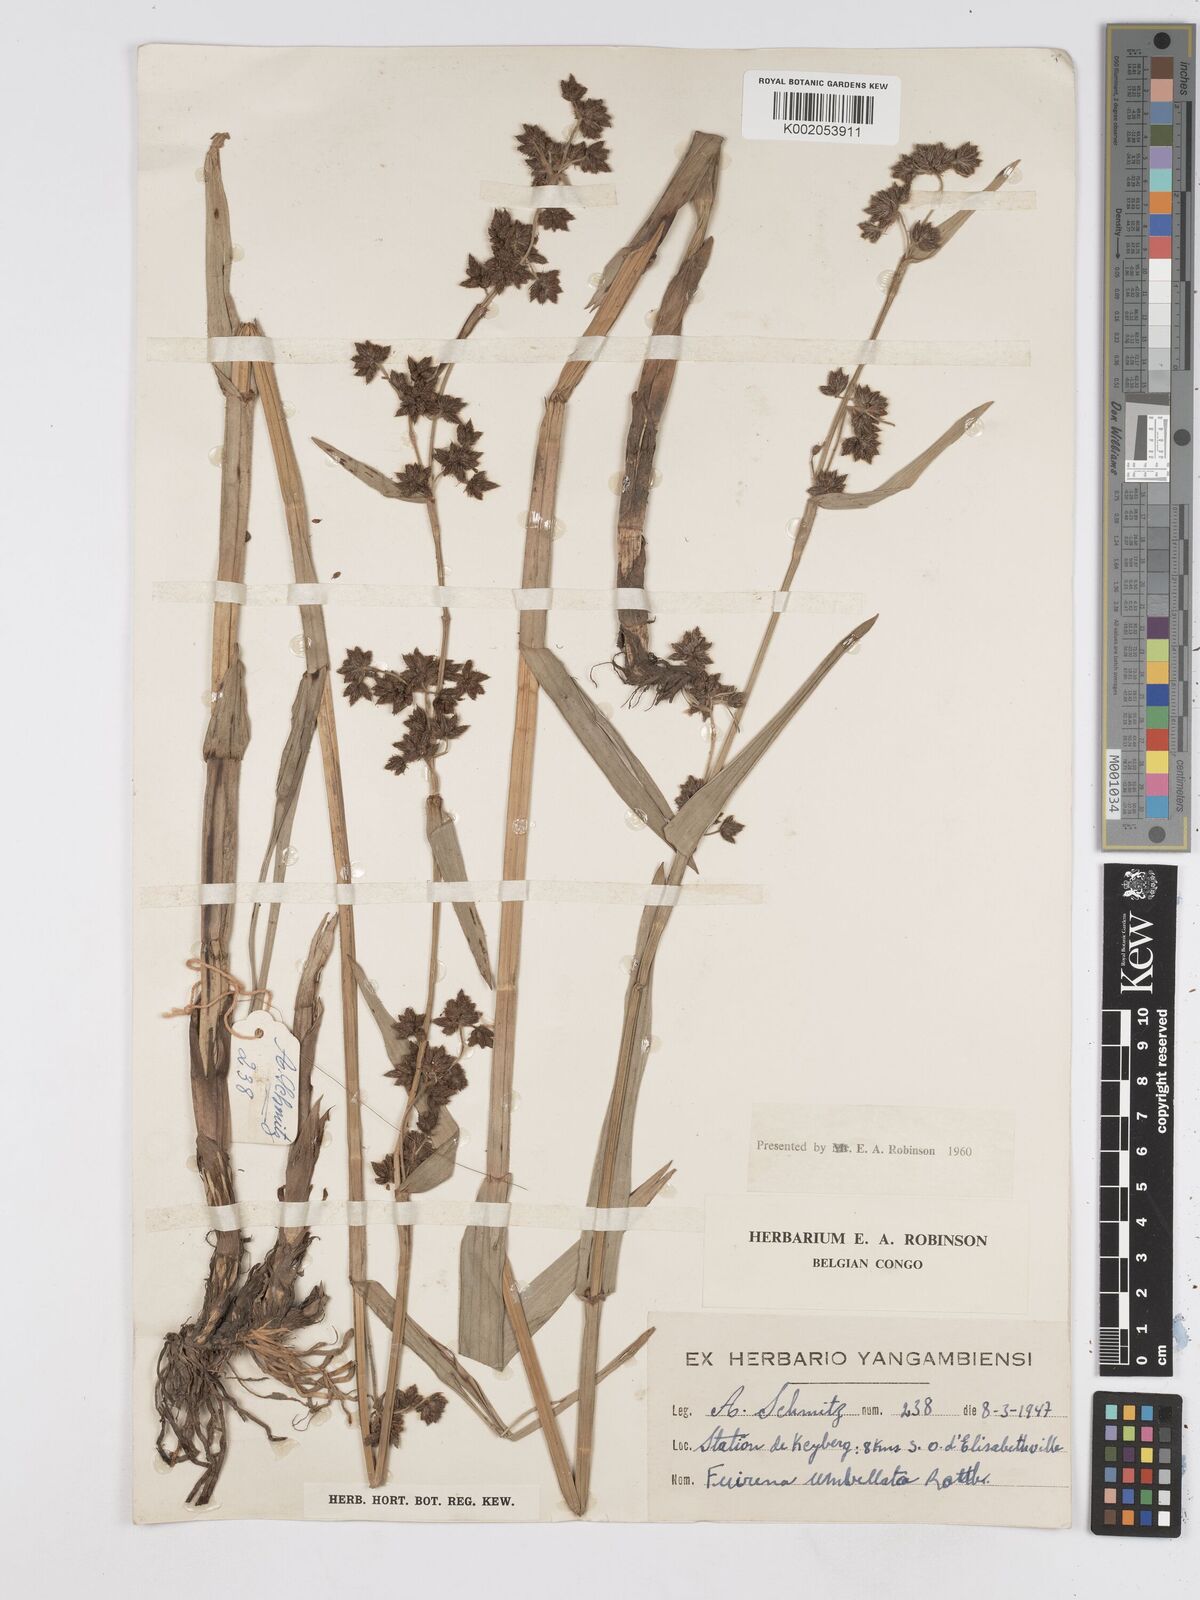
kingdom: Plantae
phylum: Tracheophyta
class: Liliopsida
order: Poales
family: Cyperaceae
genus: Fuirena
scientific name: Fuirena umbellata
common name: Yefen
